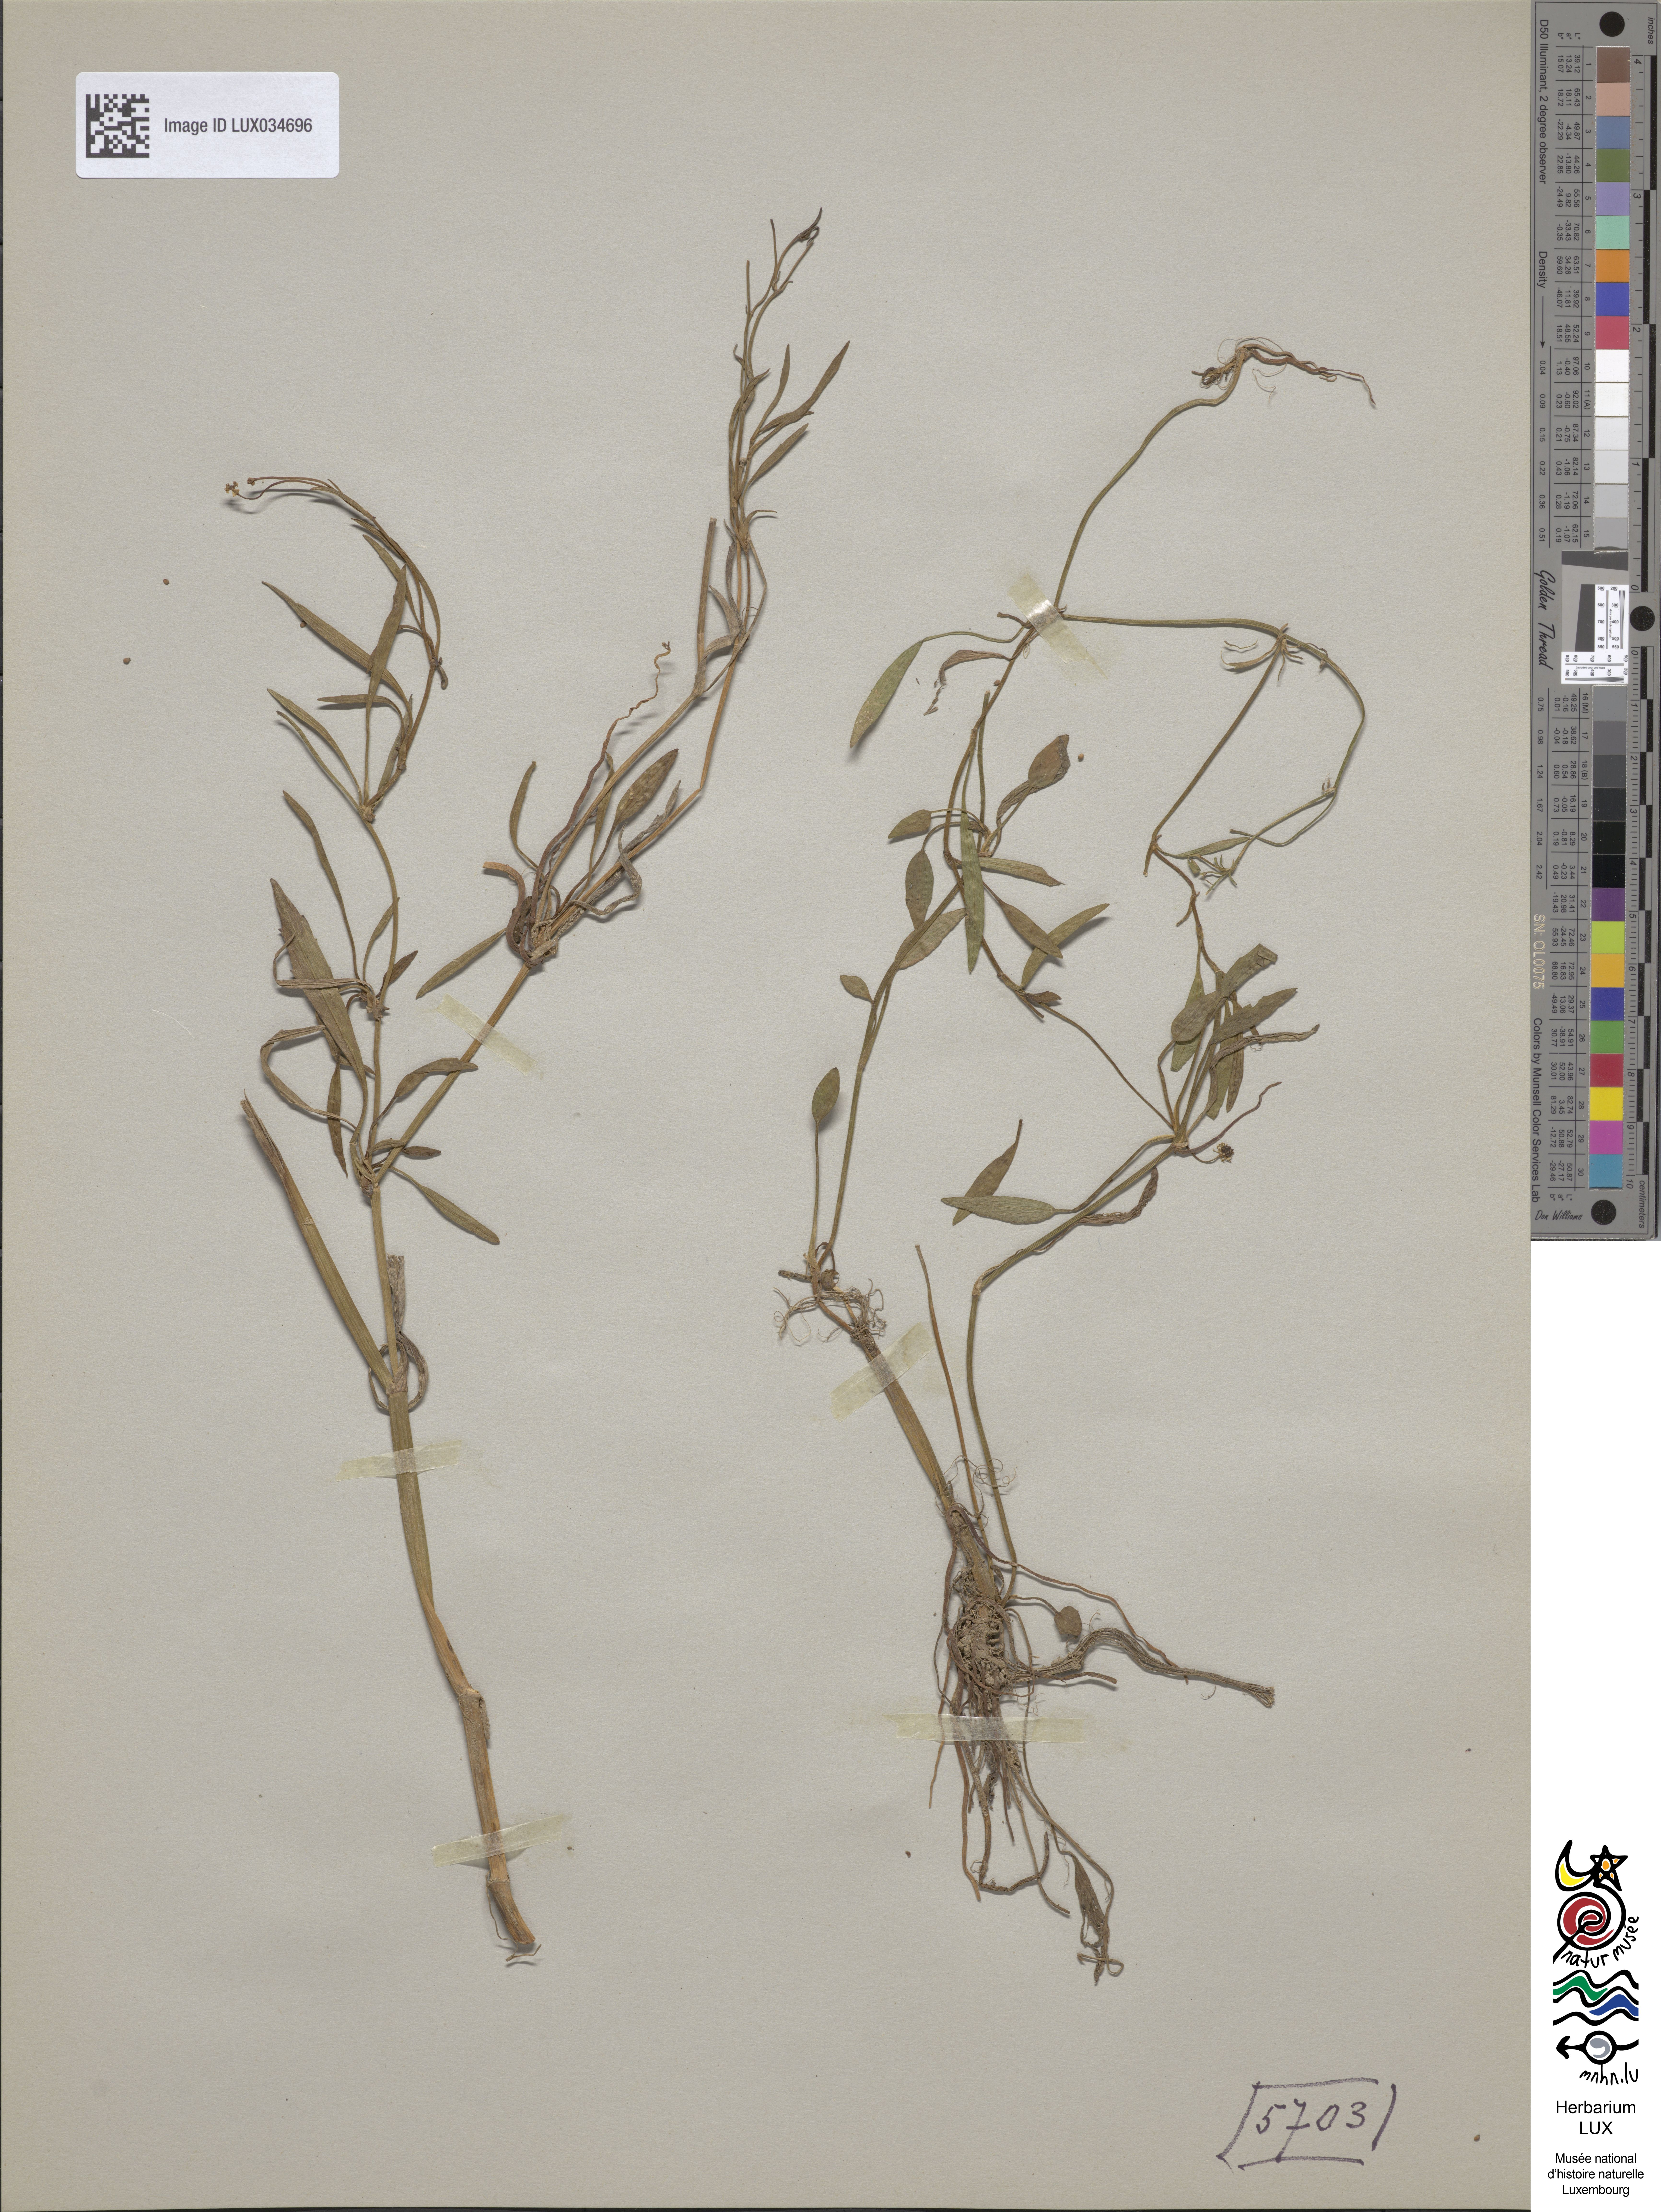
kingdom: Plantae
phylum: Tracheophyta
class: Magnoliopsida
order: Ranunculales
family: Ranunculaceae
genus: Ranunculus
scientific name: Ranunculus flammula
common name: Lesser spearwort
